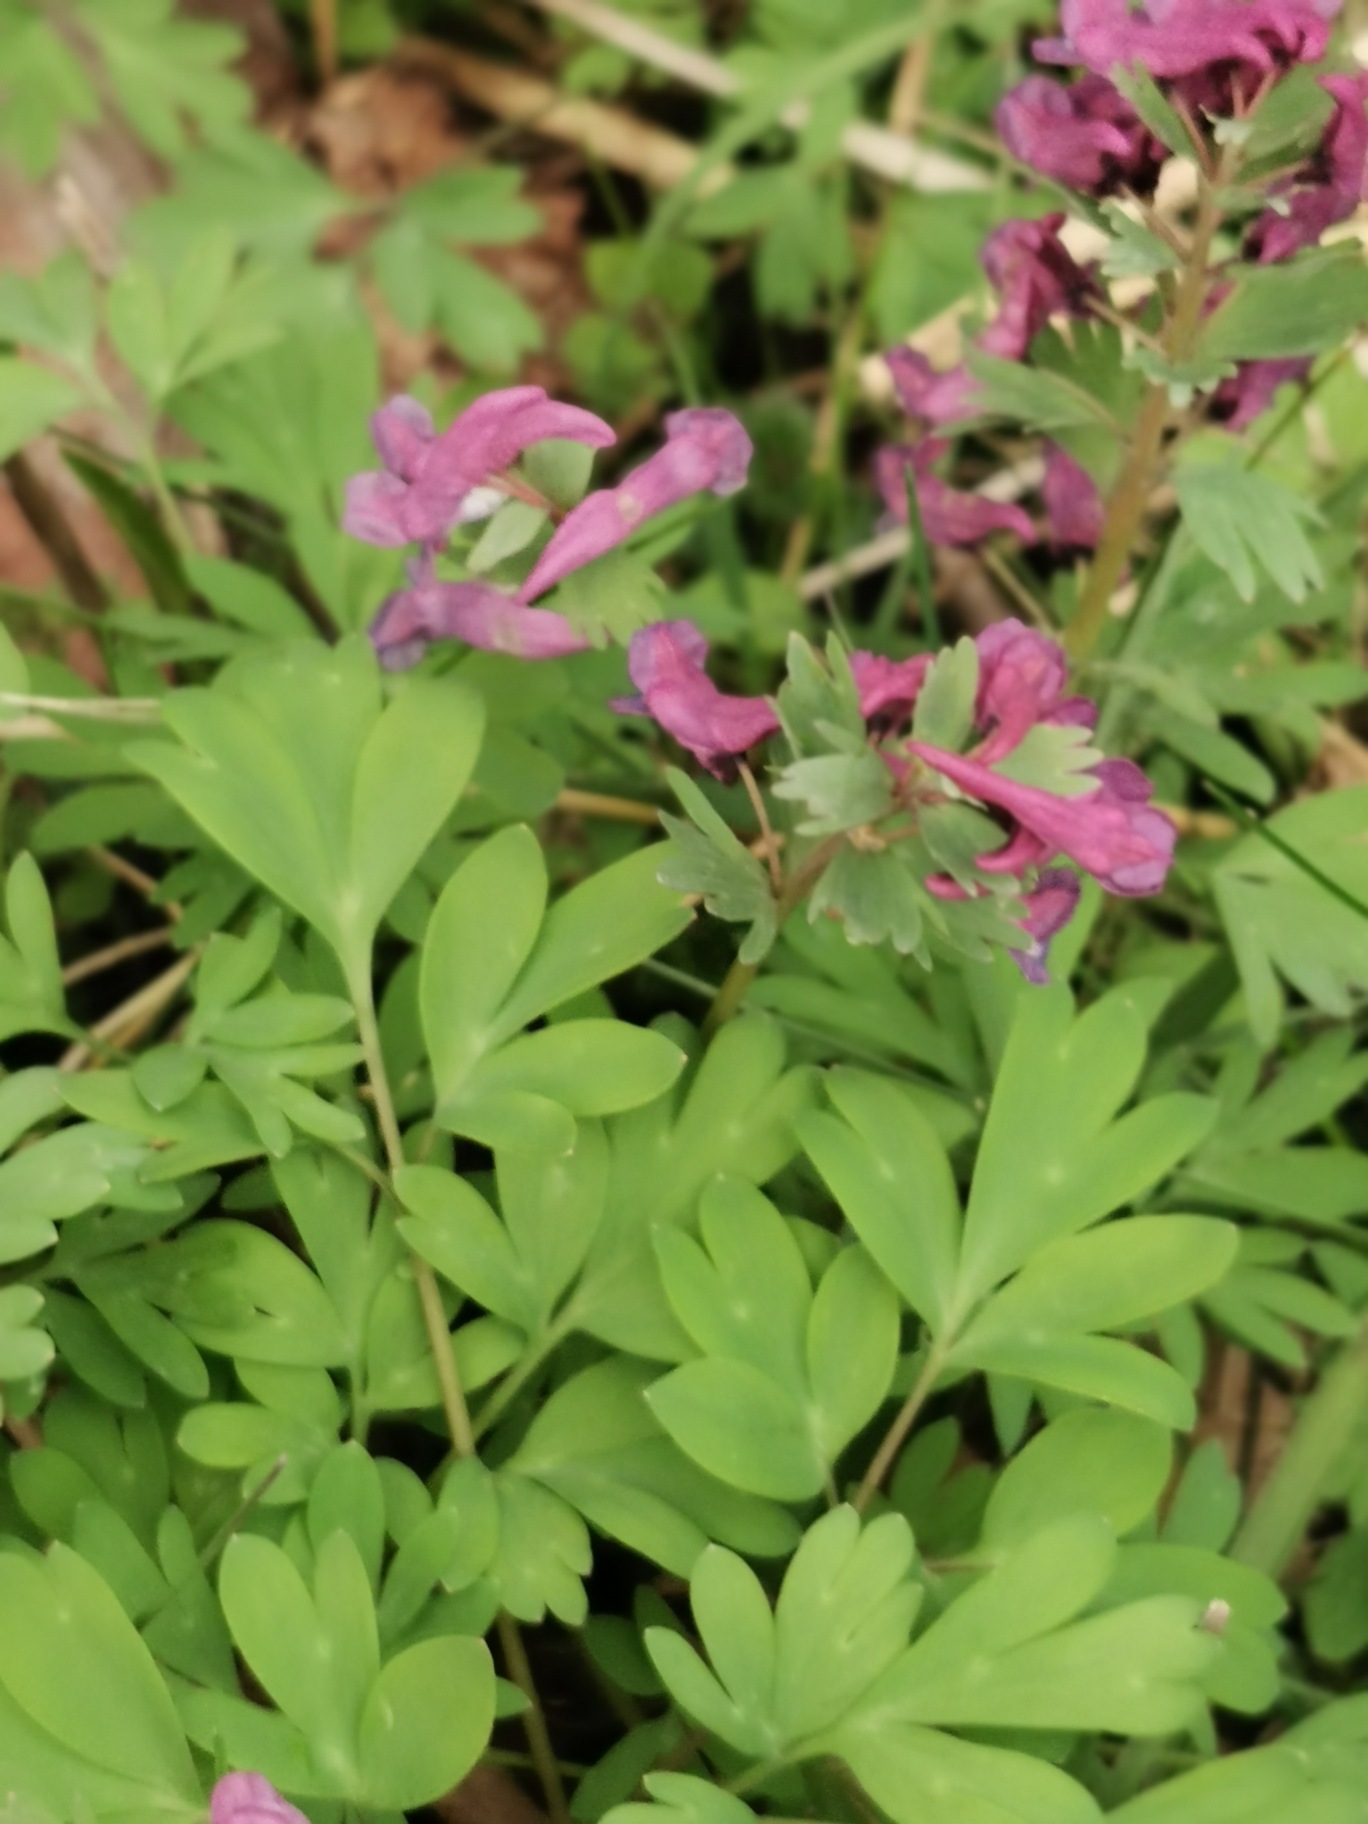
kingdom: Plantae
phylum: Tracheophyta
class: Magnoliopsida
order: Ranunculales
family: Papaveraceae
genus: Corydalis
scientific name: Corydalis solida
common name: Langstilket lærkespore
